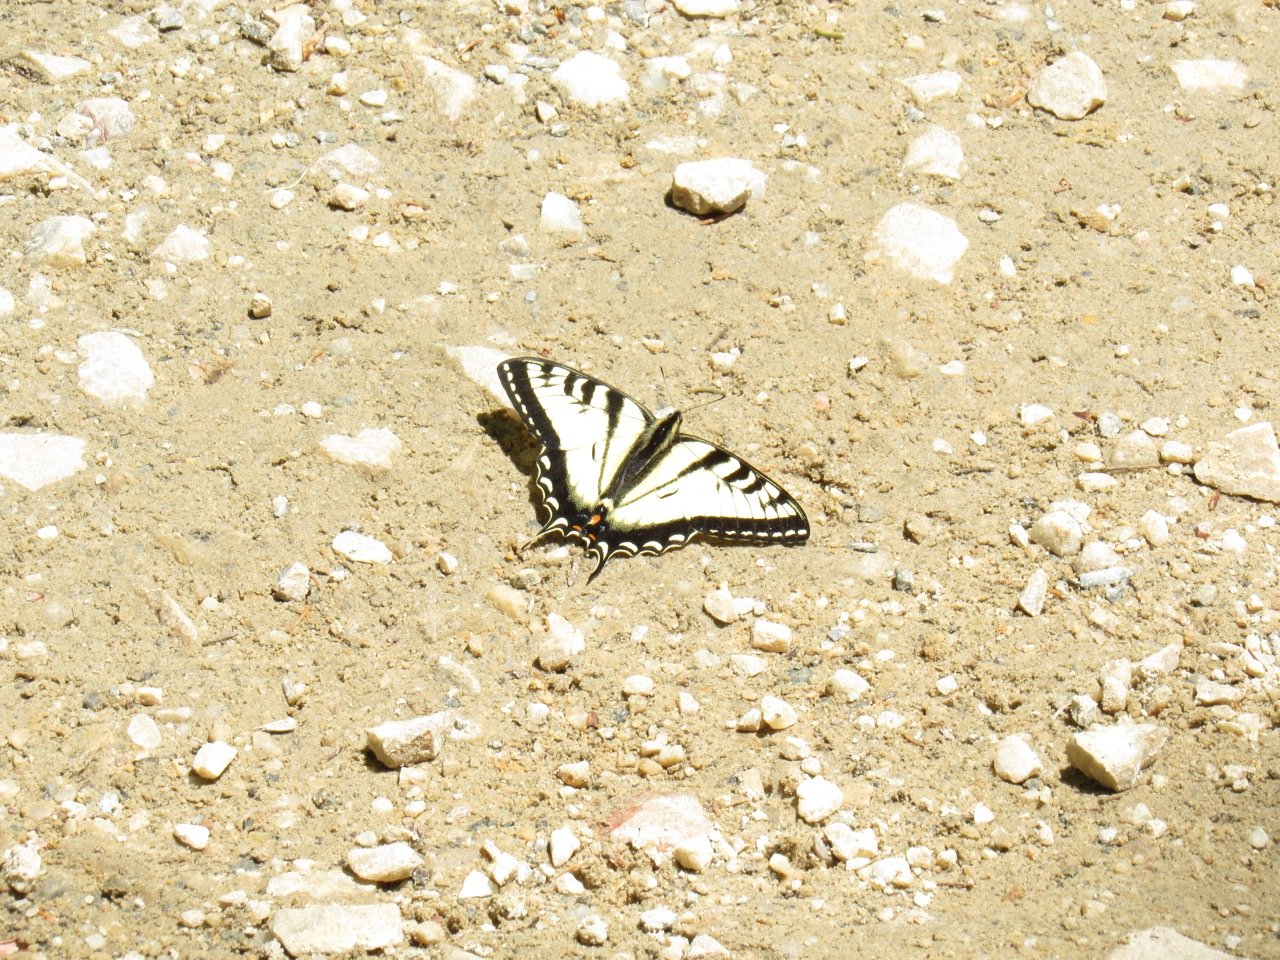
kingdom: Animalia
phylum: Arthropoda
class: Insecta
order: Lepidoptera
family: Papilionidae
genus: Pterourus
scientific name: Pterourus canadensis
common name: Canadian Tiger Swallowtail
